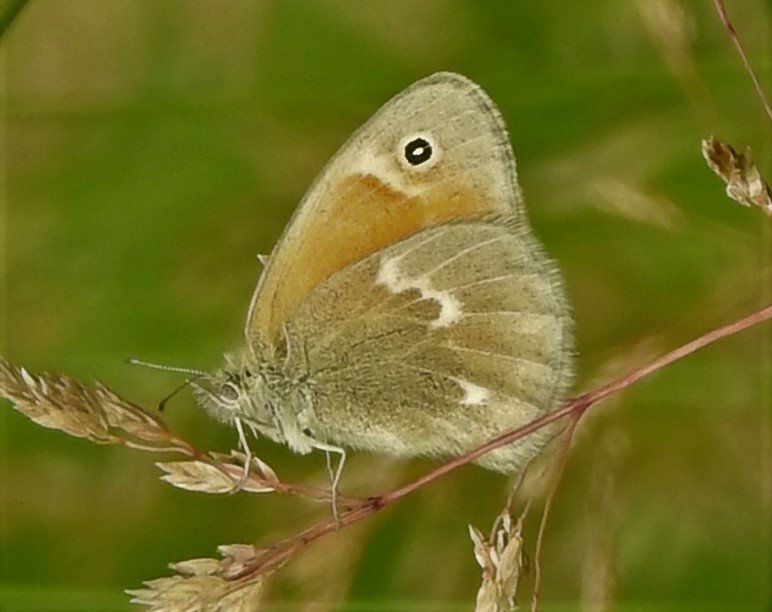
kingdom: Animalia
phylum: Arthropoda
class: Insecta
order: Lepidoptera
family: Nymphalidae
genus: Coenonympha
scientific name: Coenonympha tullia
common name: Large Heath
